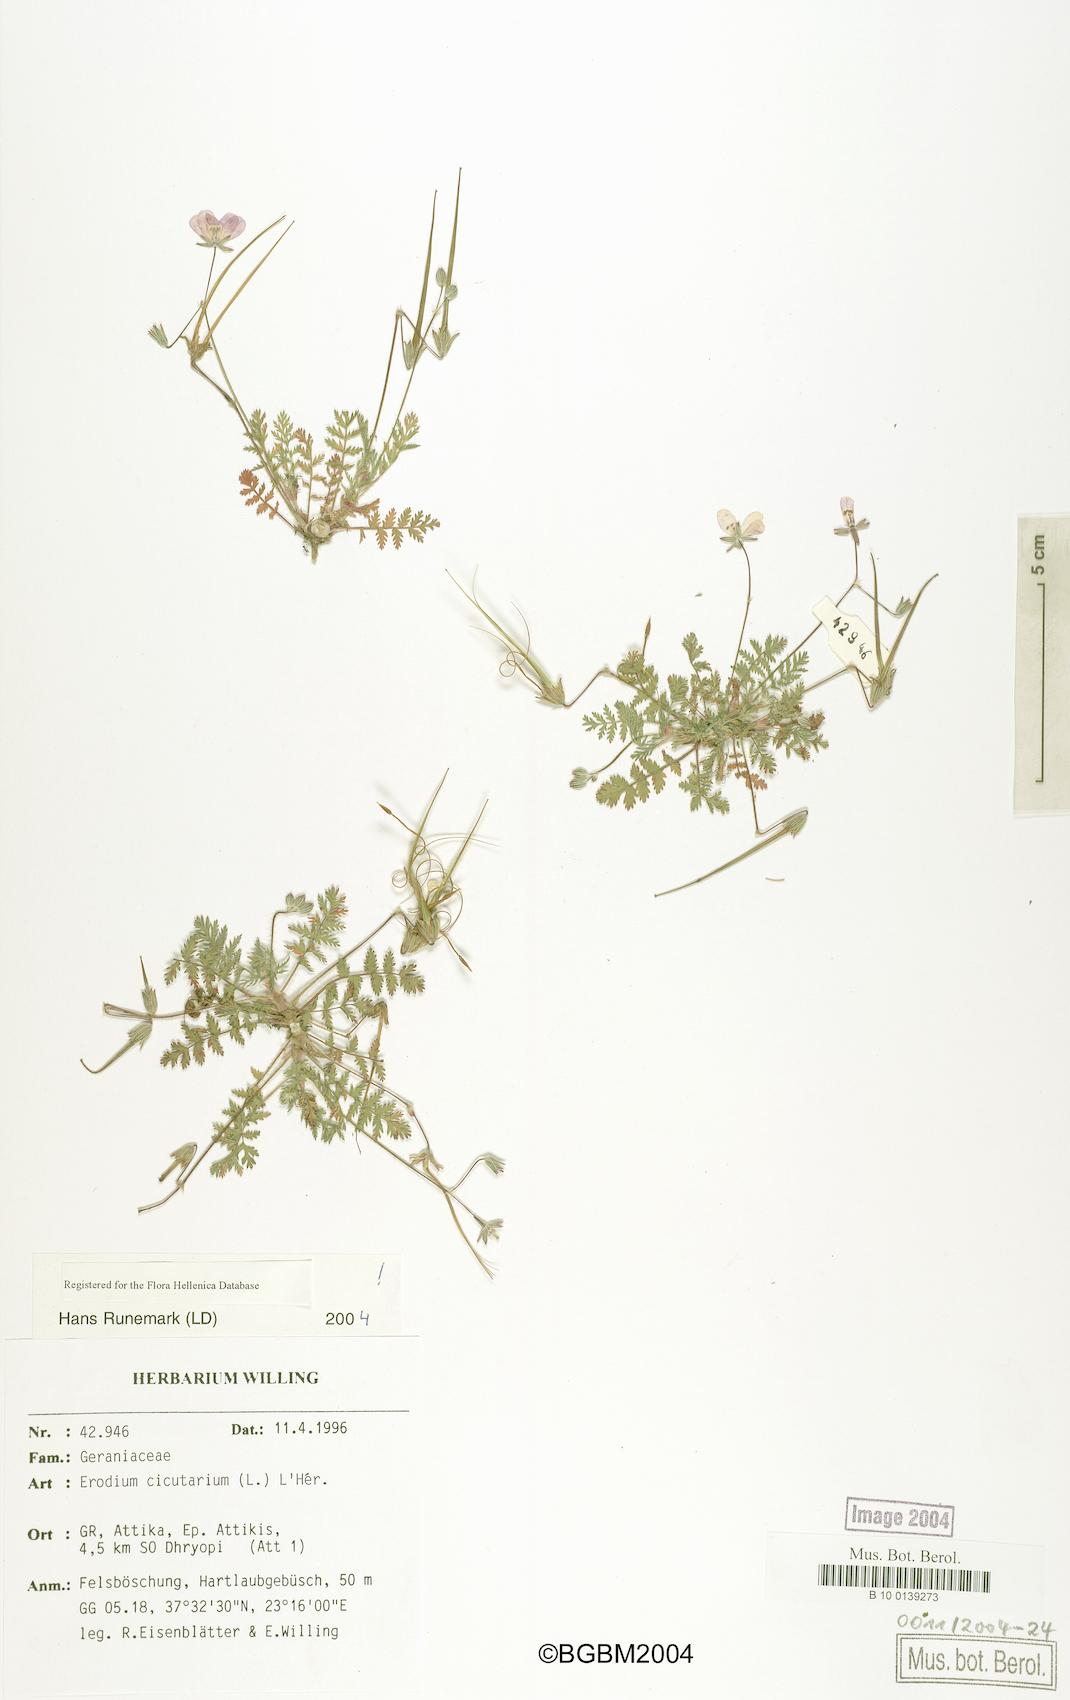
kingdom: Plantae
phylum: Tracheophyta
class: Magnoliopsida
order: Geraniales
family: Geraniaceae
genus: Erodium
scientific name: Erodium cicutarium
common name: Common stork's-bill
